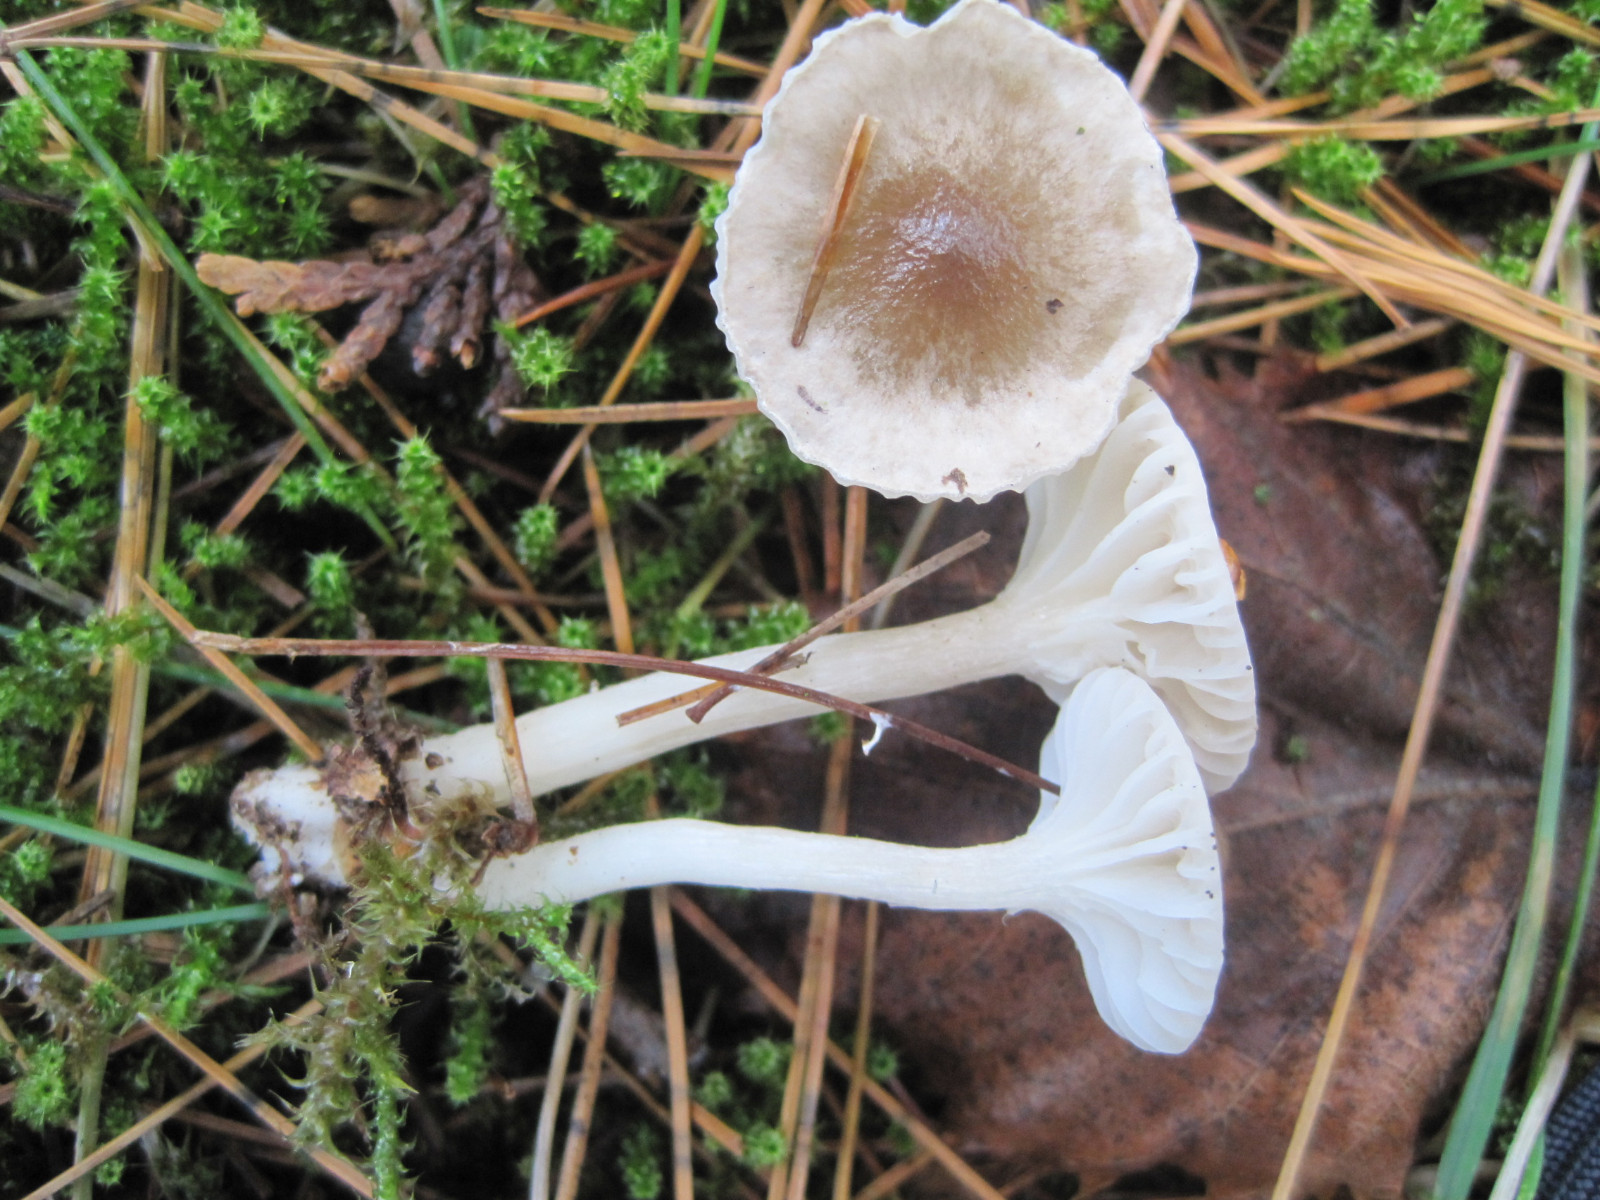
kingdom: Fungi
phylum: Basidiomycota
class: Agaricomycetes
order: Agaricales
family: Hygrophoraceae
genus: Hygrophorus
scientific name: Hygrophorus agathosmus
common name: vellugtende sneglehat
